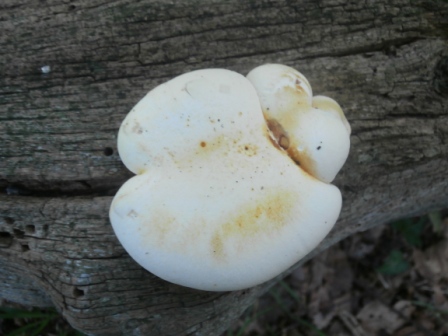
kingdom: Fungi
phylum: Basidiomycota
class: Agaricomycetes
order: Polyporales
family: Fomitopsidaceae
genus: Buglossoporus
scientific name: Buglossoporus quercinus
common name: egetunge
